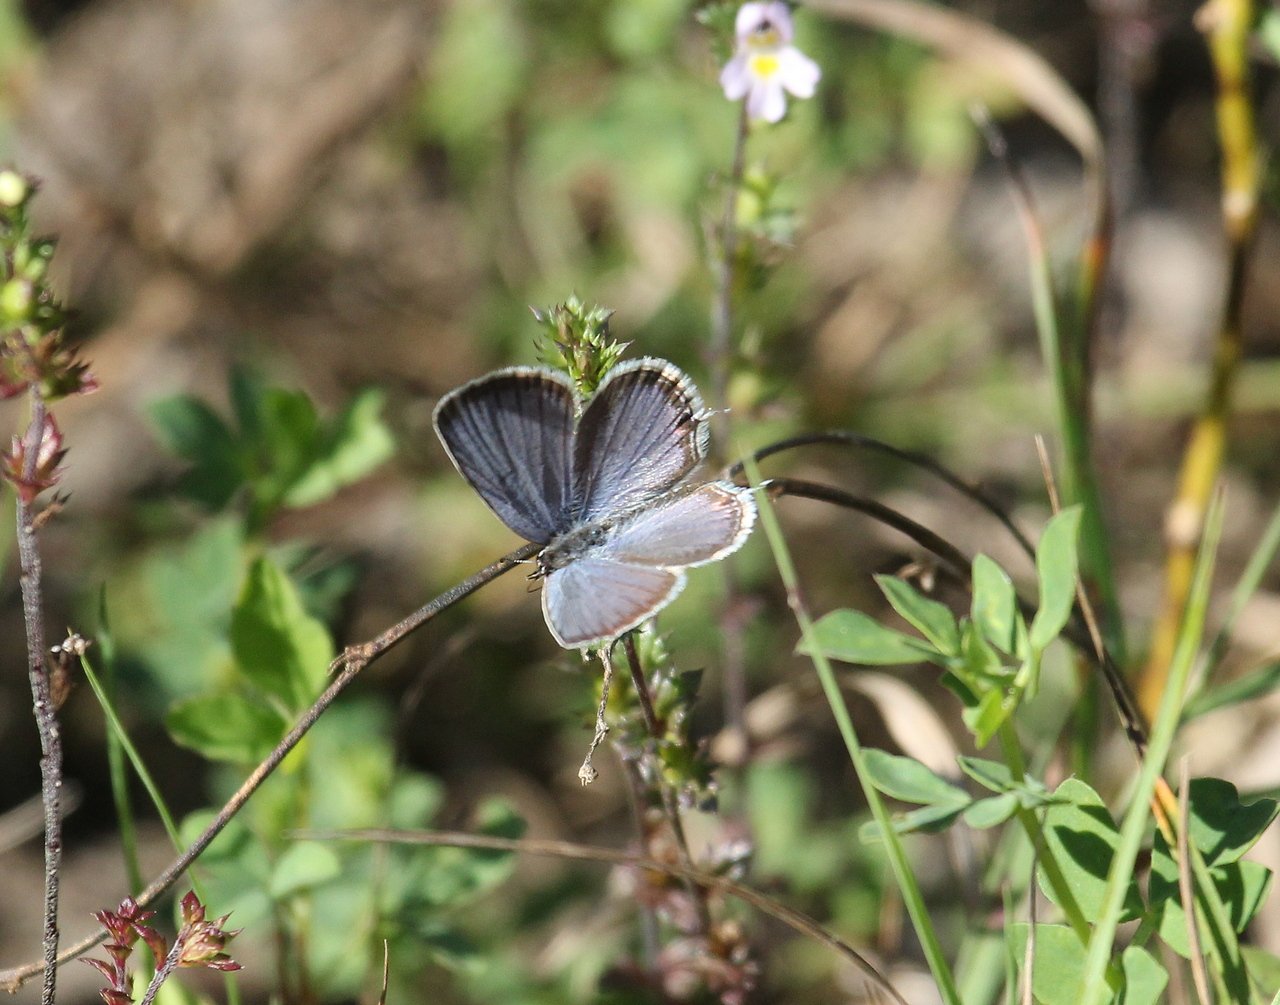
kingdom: Animalia
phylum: Arthropoda
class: Insecta
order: Lepidoptera
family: Lycaenidae
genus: Elkalyce
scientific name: Elkalyce comyntas
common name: Eastern Tailed-Blue
